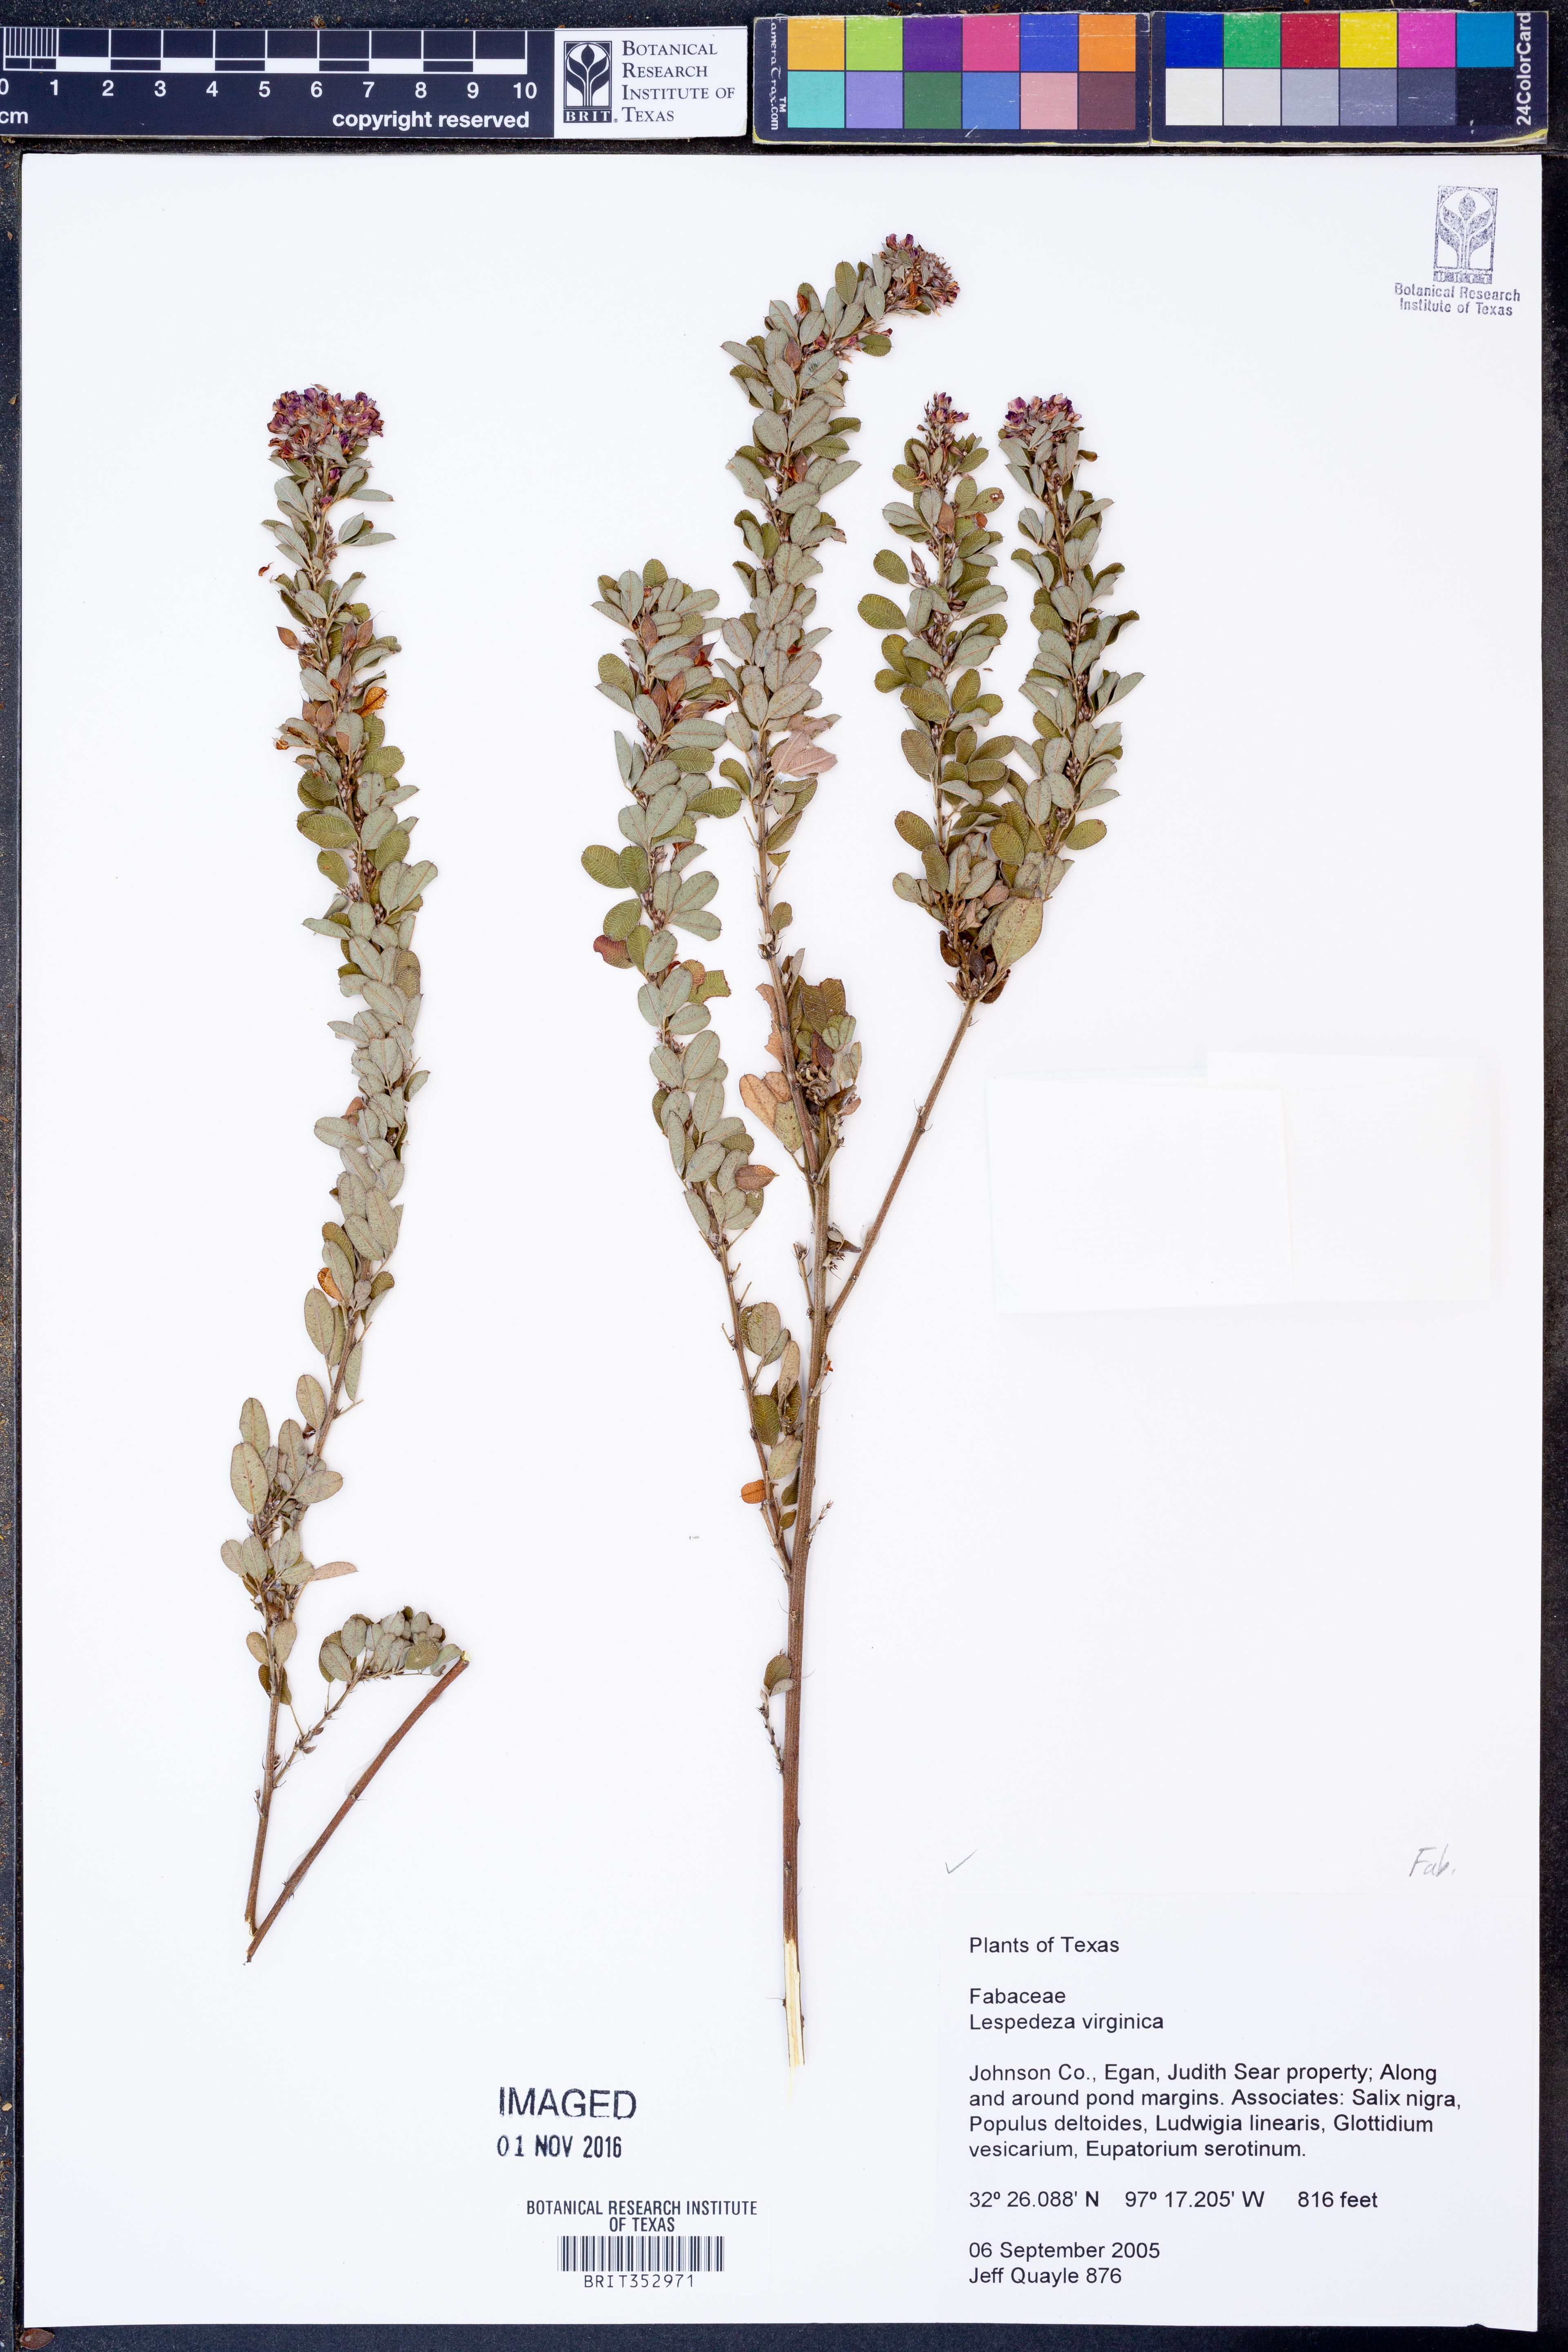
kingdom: Plantae
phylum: Tracheophyta
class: Magnoliopsida
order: Fabales
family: Fabaceae
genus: Lespedeza
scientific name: Lespedeza virginica
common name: Slender bush-clover
